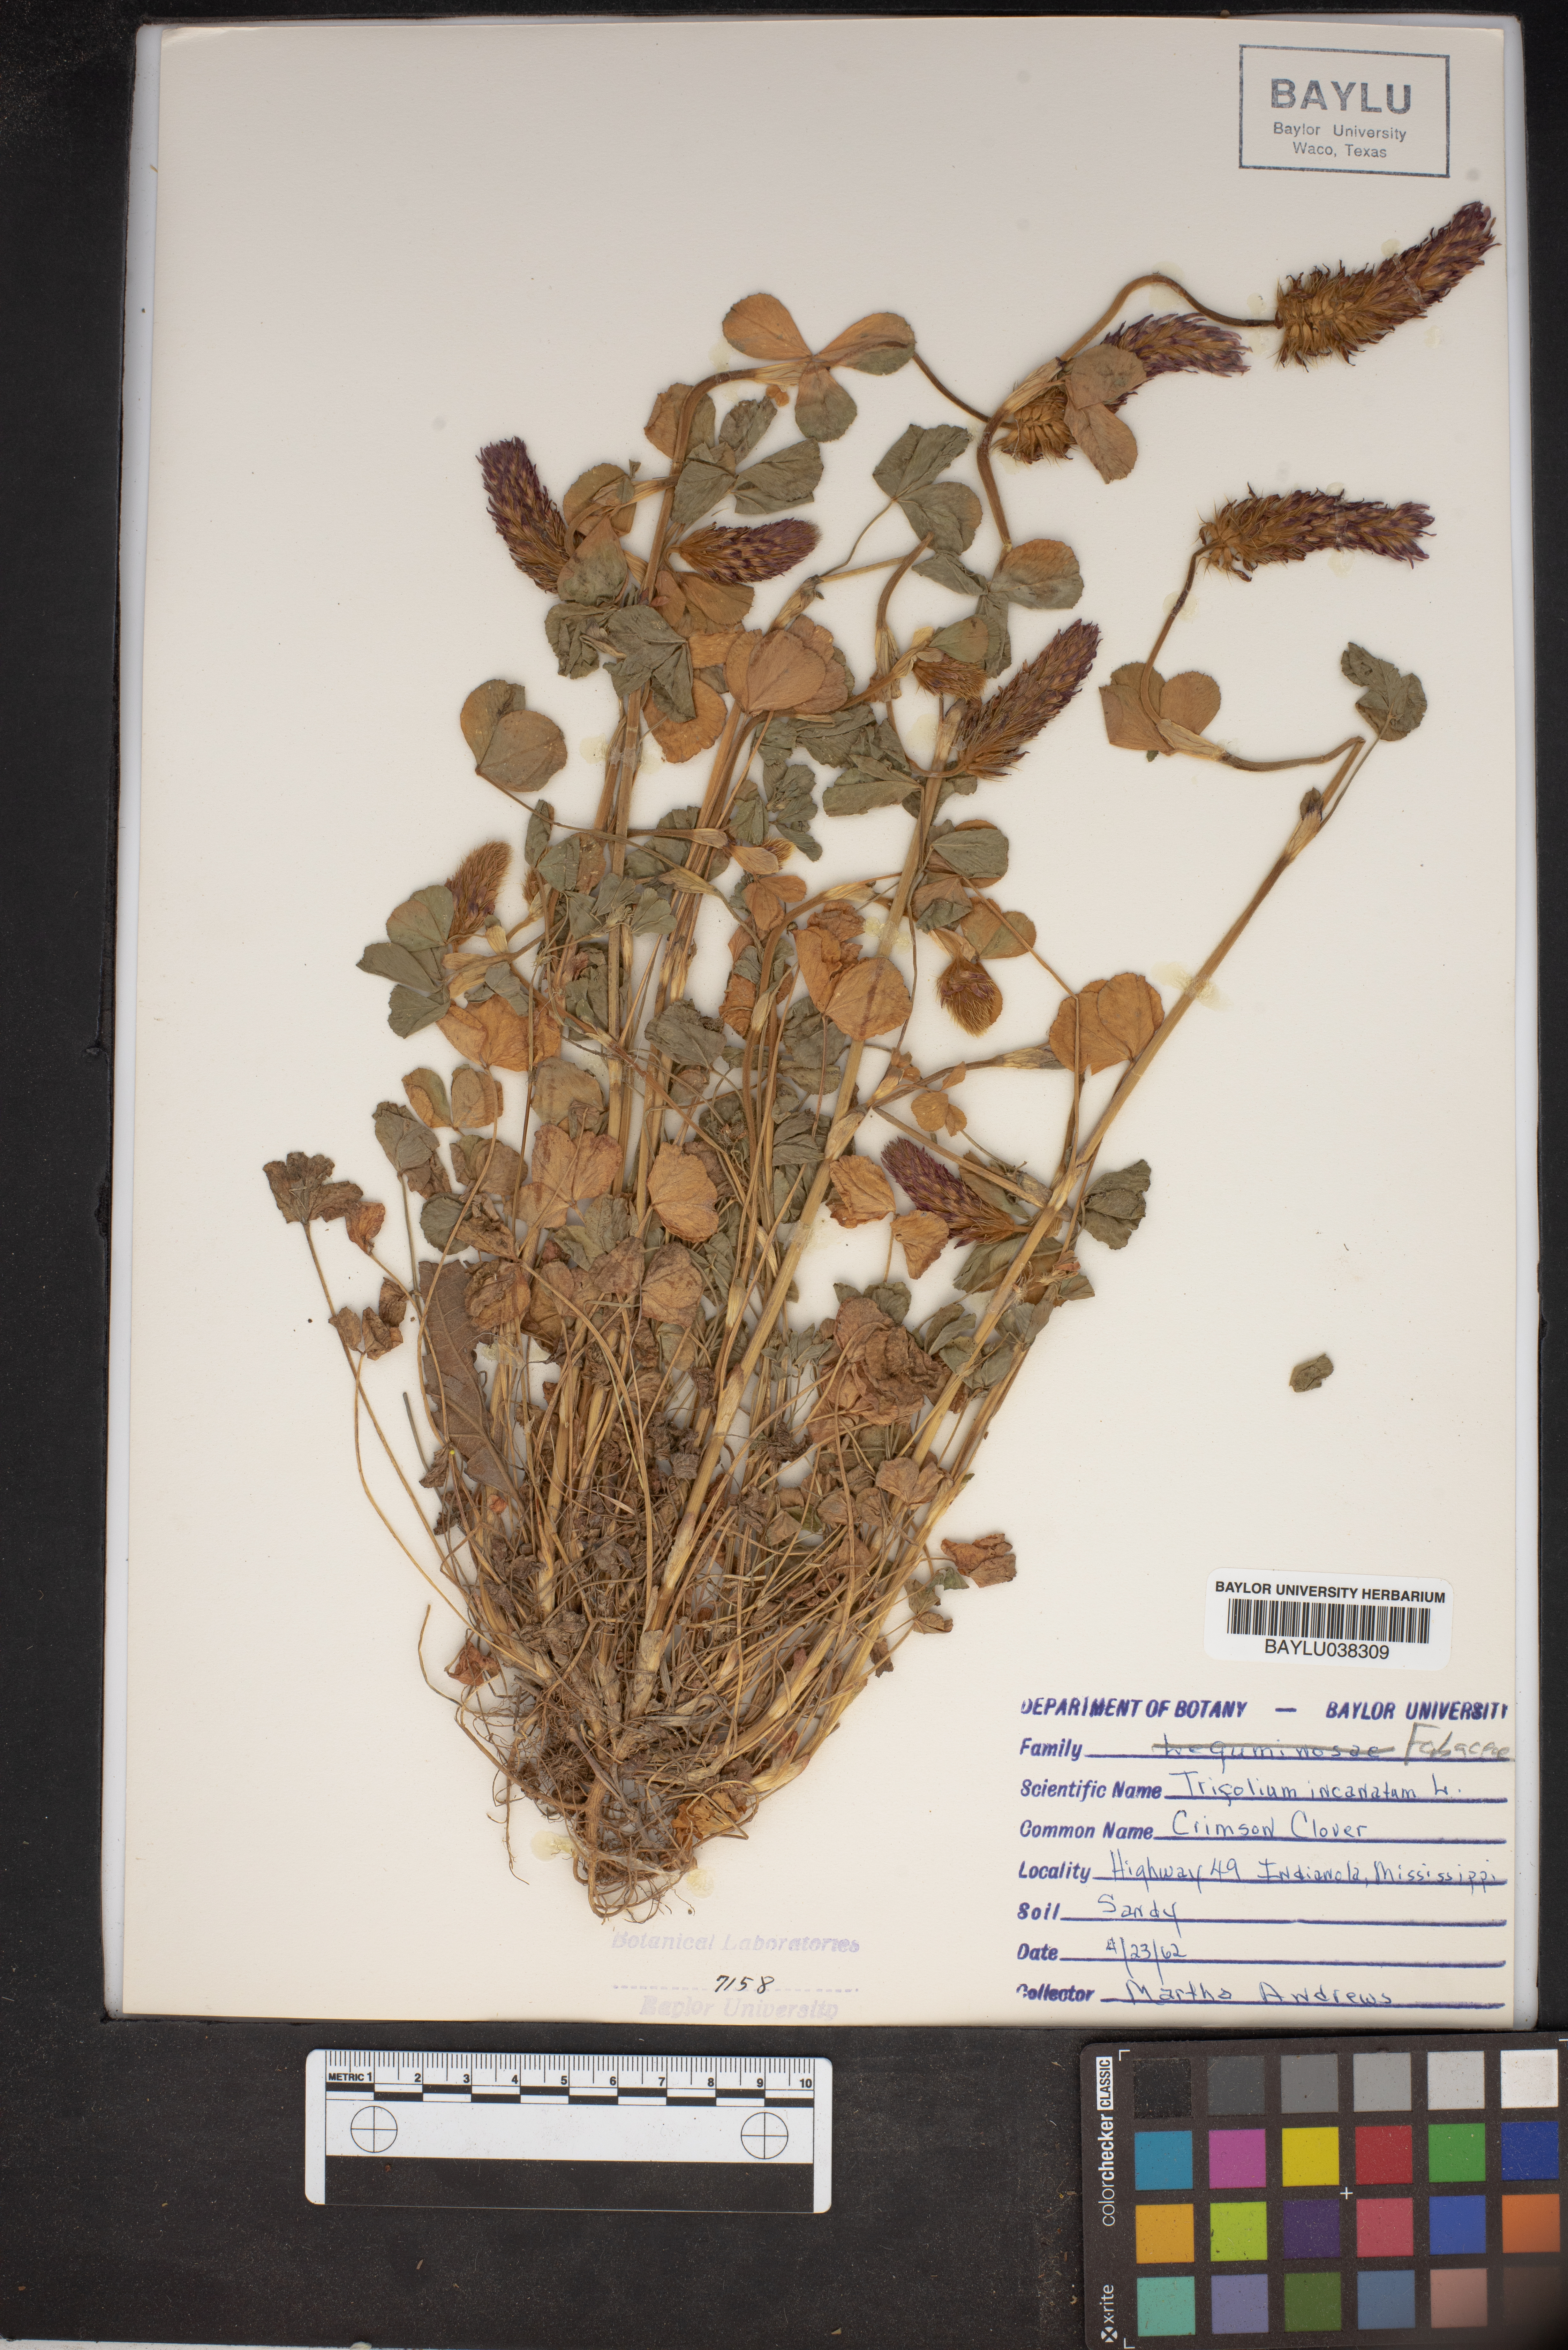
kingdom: Plantae
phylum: Tracheophyta
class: Magnoliopsida
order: Fabales
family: Fabaceae
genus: Trifolium
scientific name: Trifolium incarnatum
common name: Crimson clover
